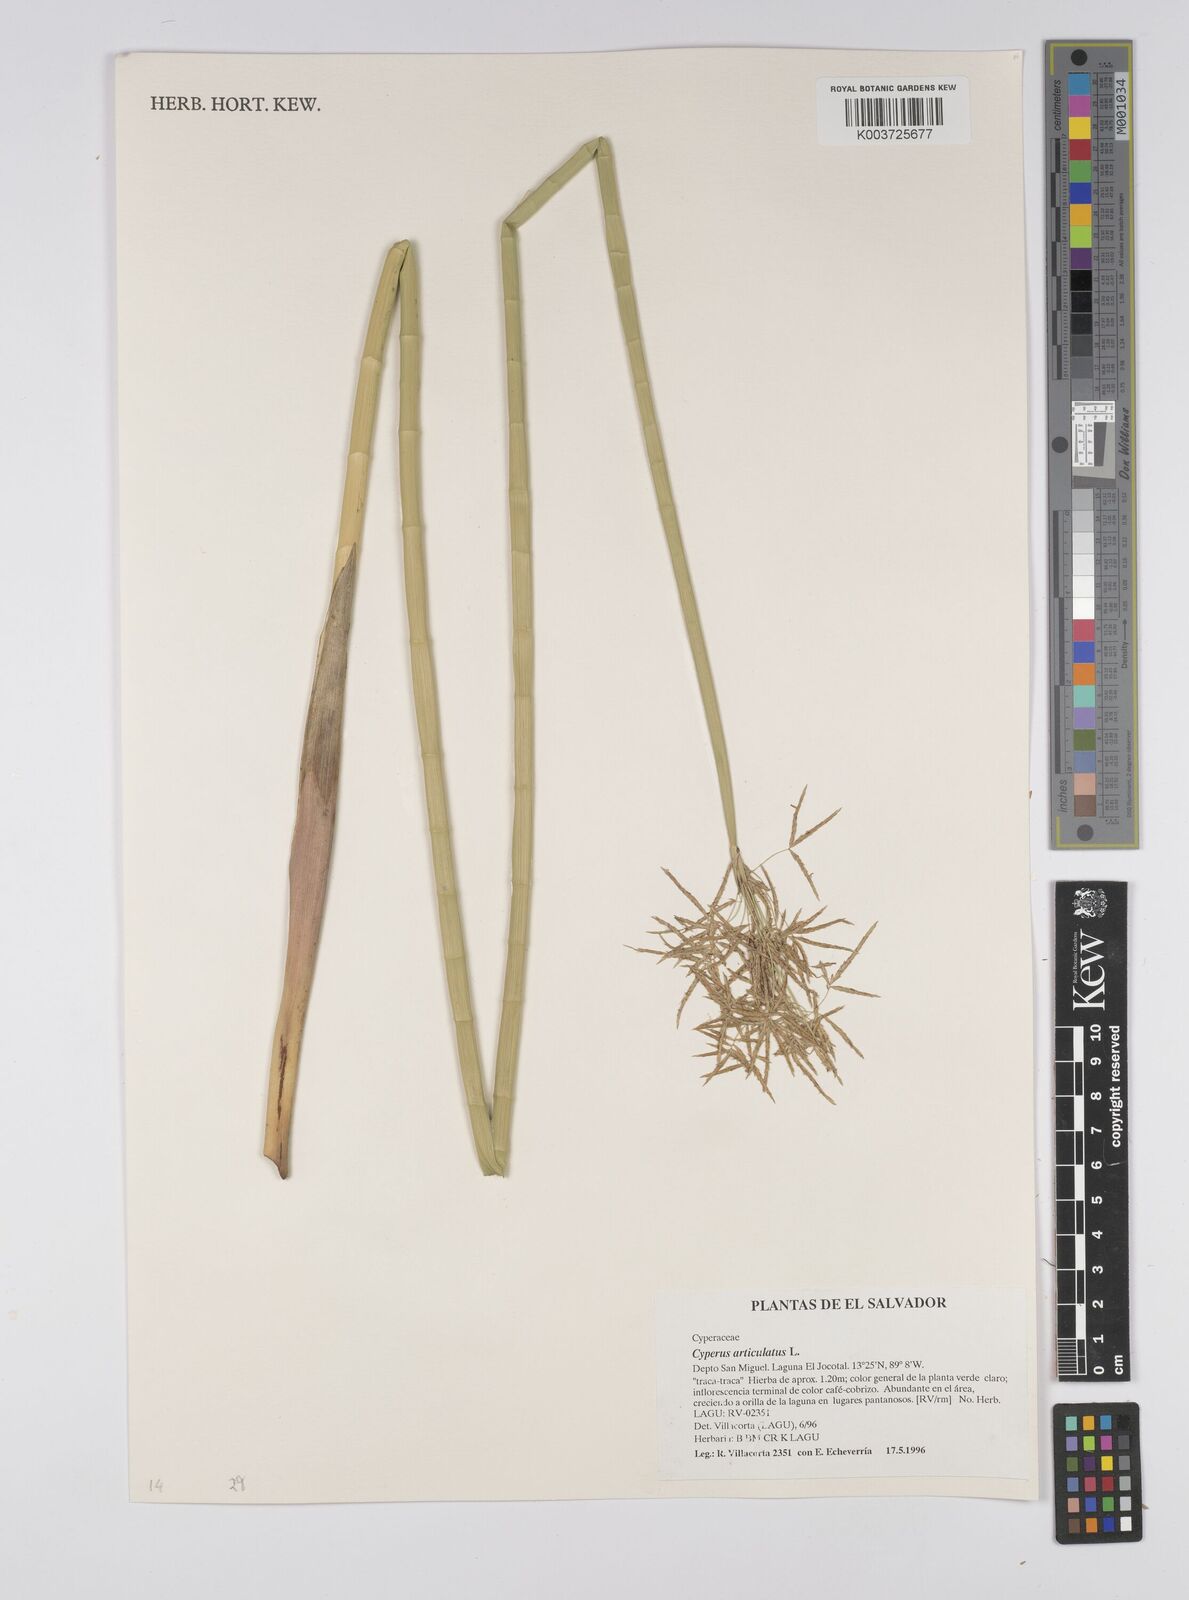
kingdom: Plantae
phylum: Tracheophyta
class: Liliopsida
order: Poales
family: Cyperaceae
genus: Cyperus
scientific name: Cyperus articulatus
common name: Jointed flatsedge
